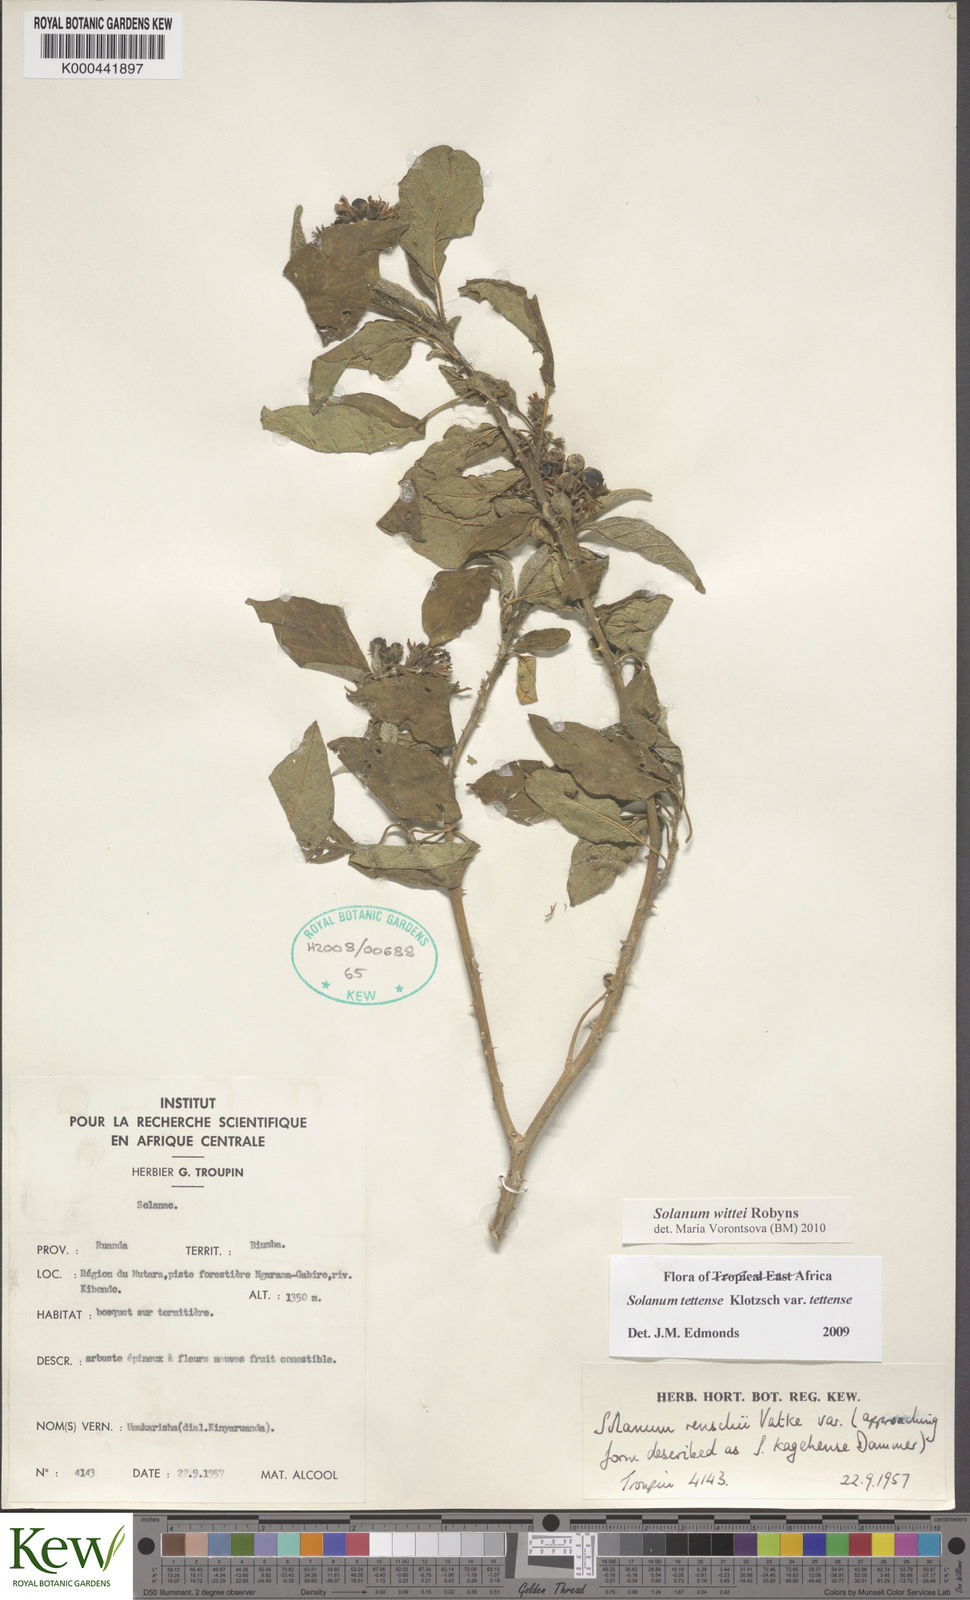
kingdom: Plantae
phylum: Tracheophyta
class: Magnoliopsida
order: Solanales
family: Solanaceae
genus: Solanum
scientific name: Solanum wittei
